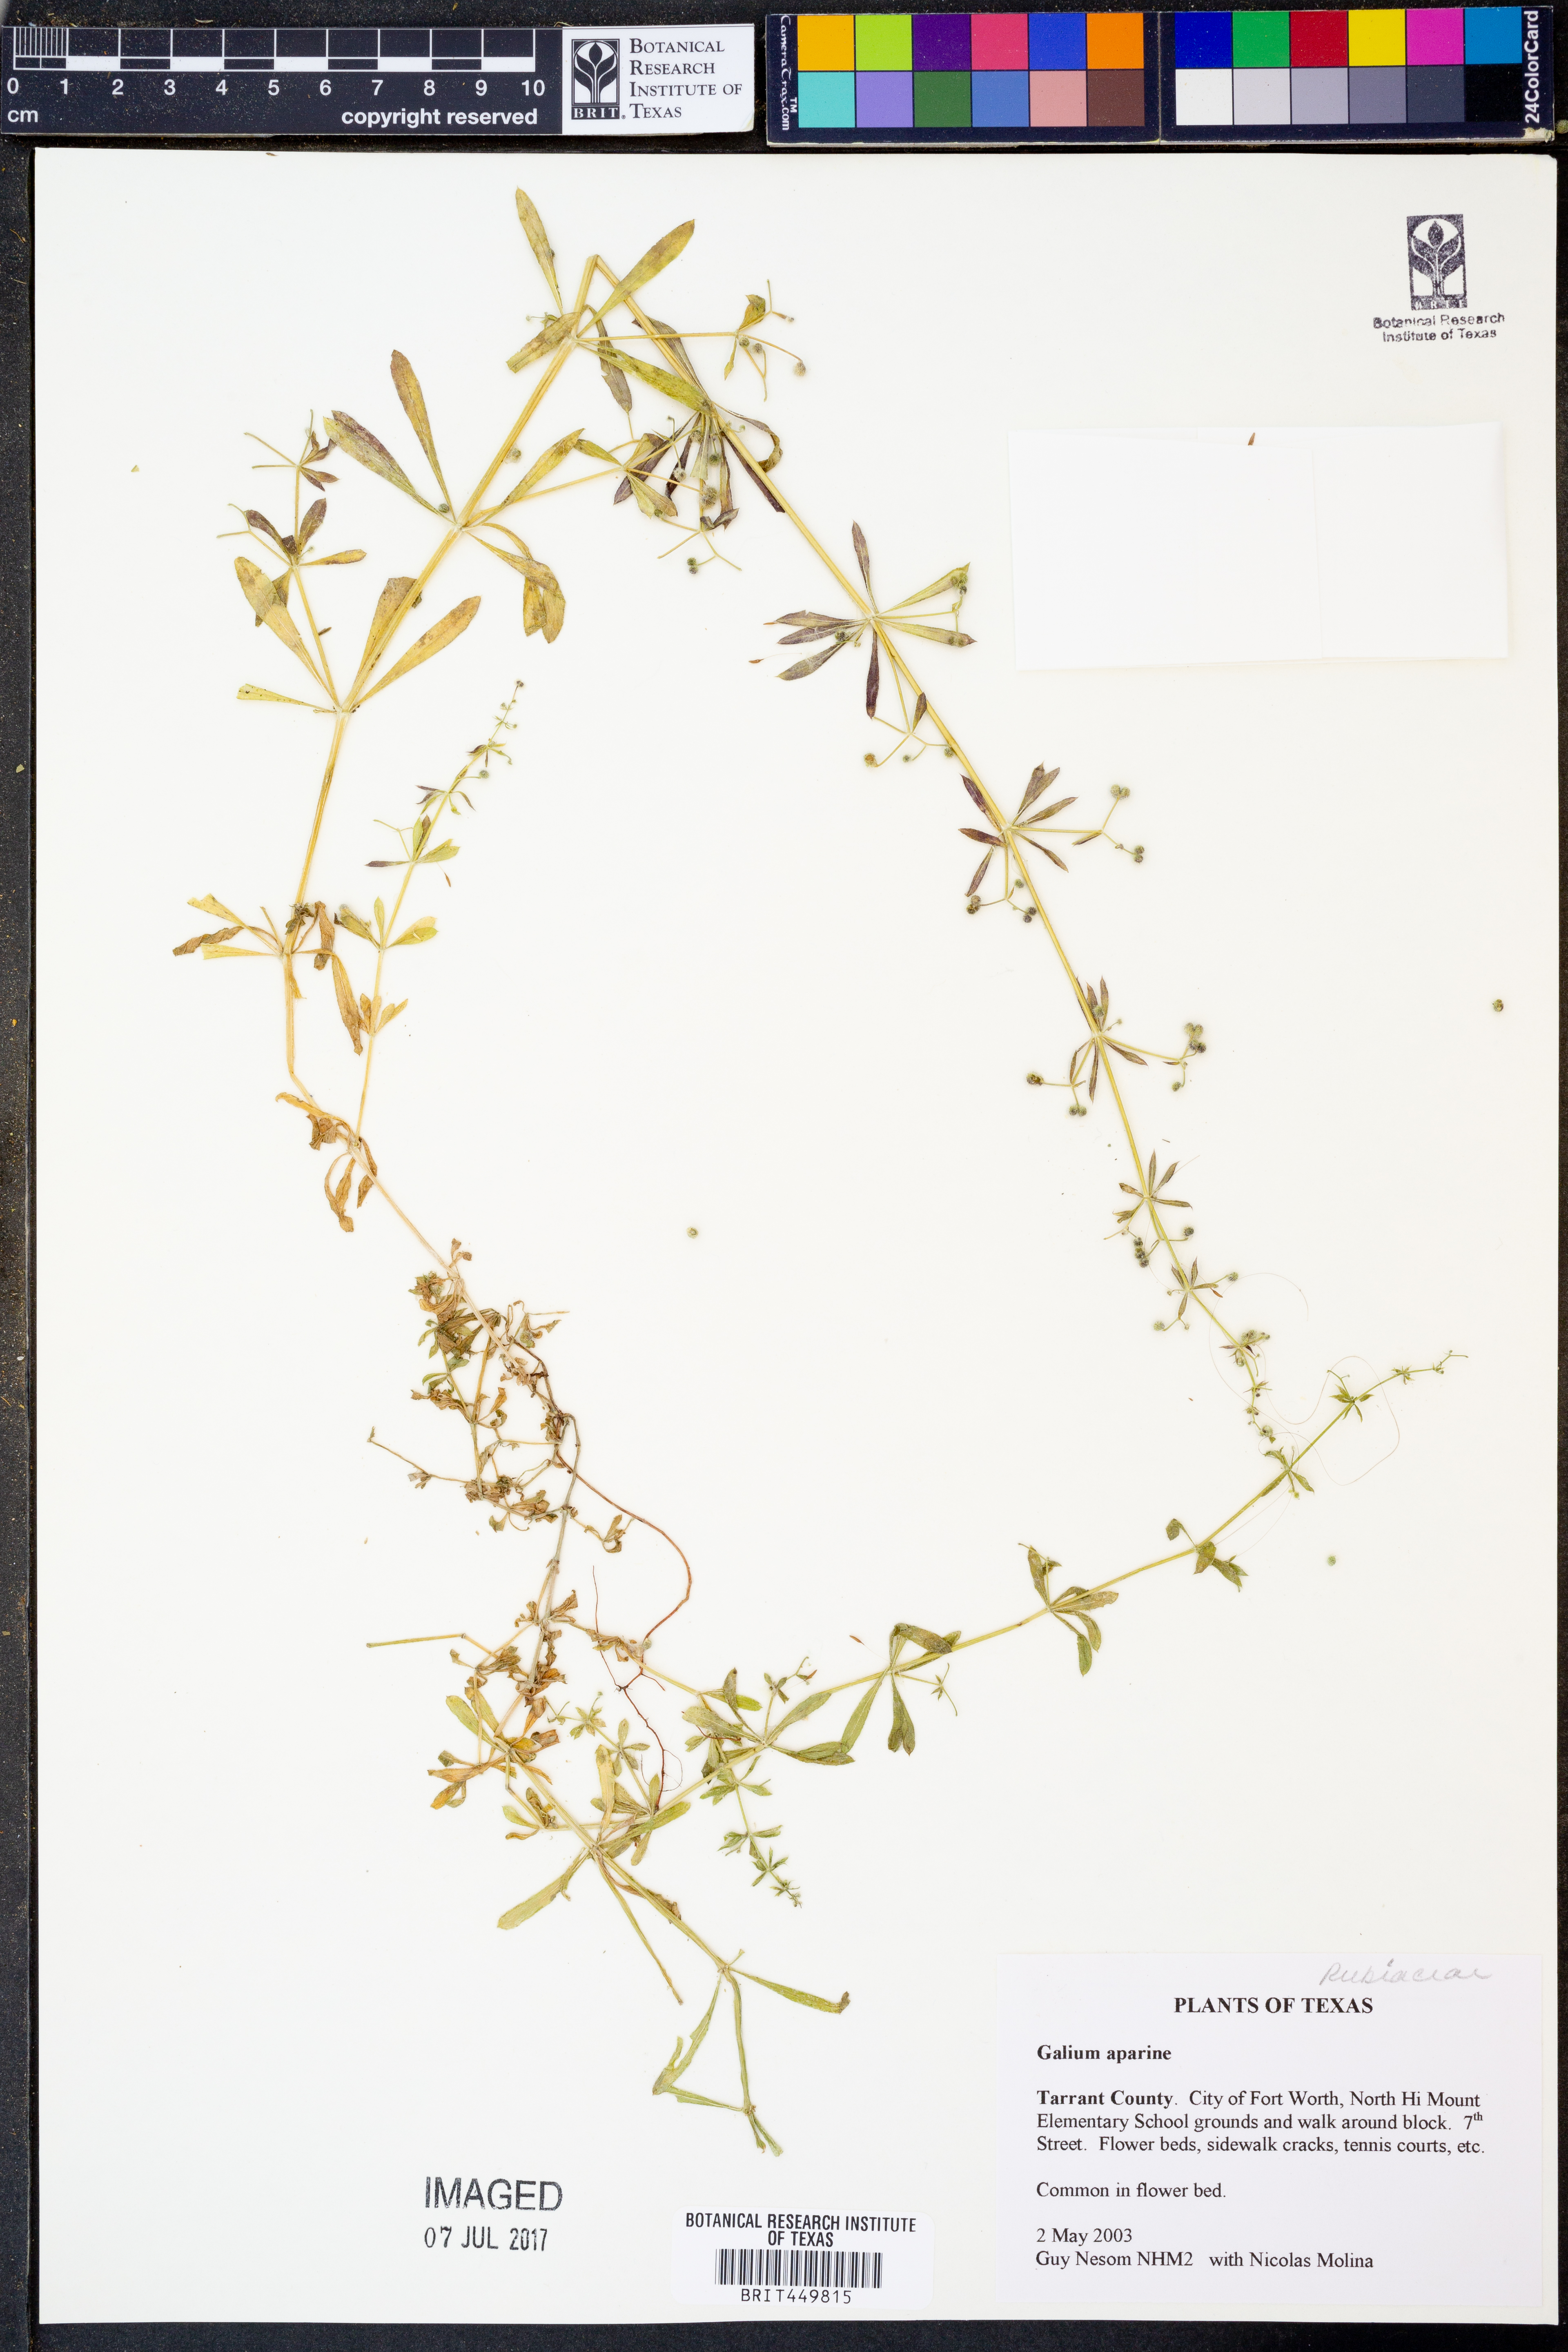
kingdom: Plantae
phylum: Tracheophyta
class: Magnoliopsida
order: Gentianales
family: Rubiaceae
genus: Galium
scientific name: Galium aparine
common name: Cleavers
